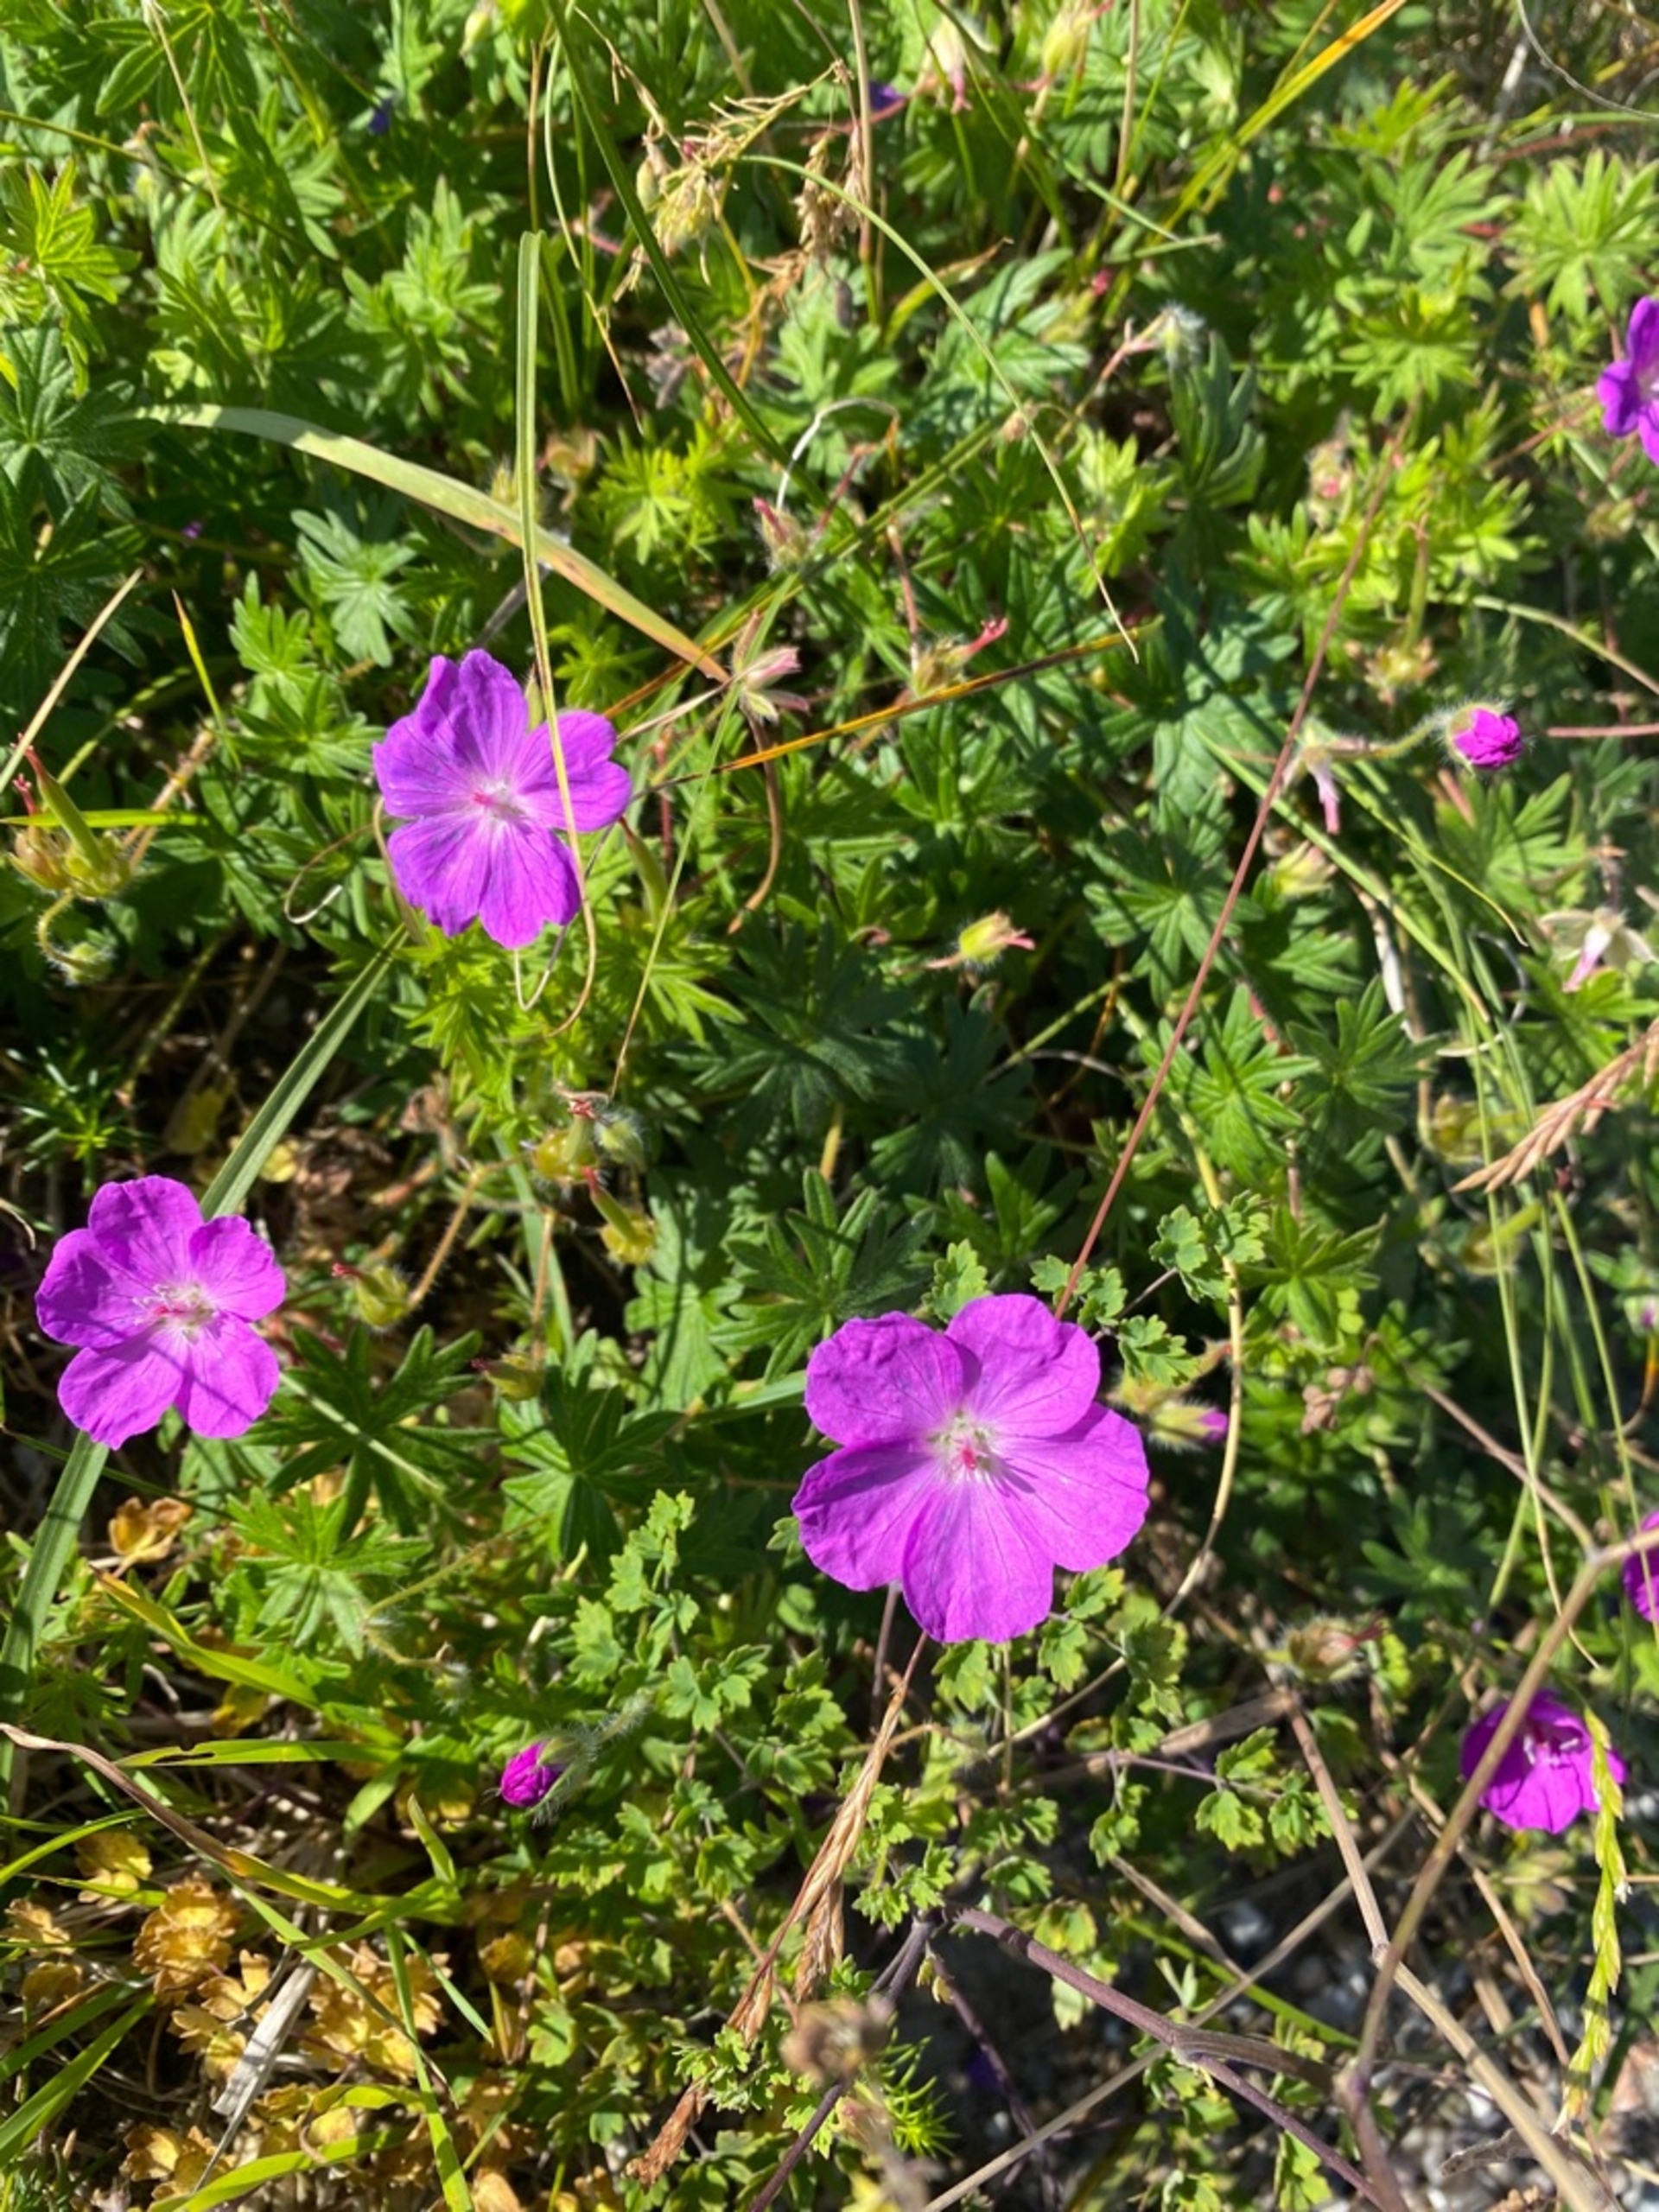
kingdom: Plantae
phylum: Tracheophyta
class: Magnoliopsida
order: Geraniales
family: Geraniaceae
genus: Geranium
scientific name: Geranium sanguineum
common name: Blodrød storkenæb
